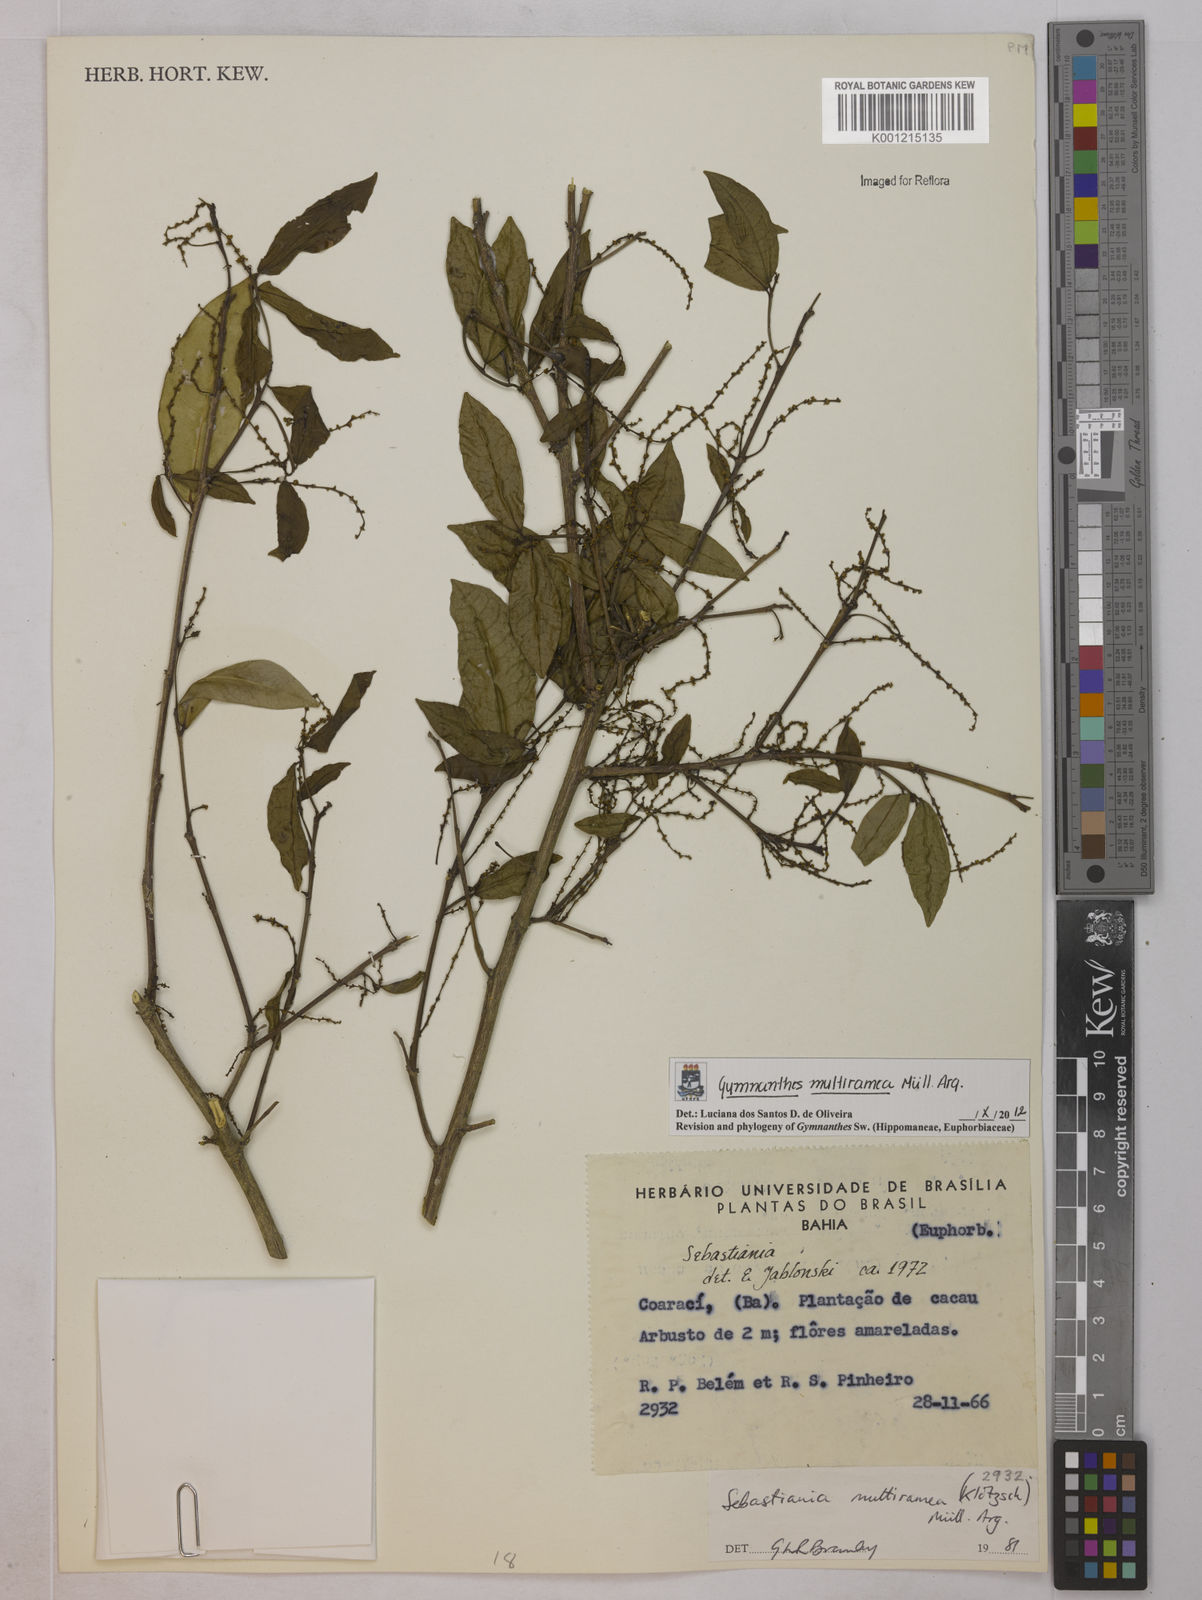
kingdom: Plantae
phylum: Tracheophyta
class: Magnoliopsida
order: Malpighiales
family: Euphorbiaceae
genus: Gymnanthes
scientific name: Gymnanthes
